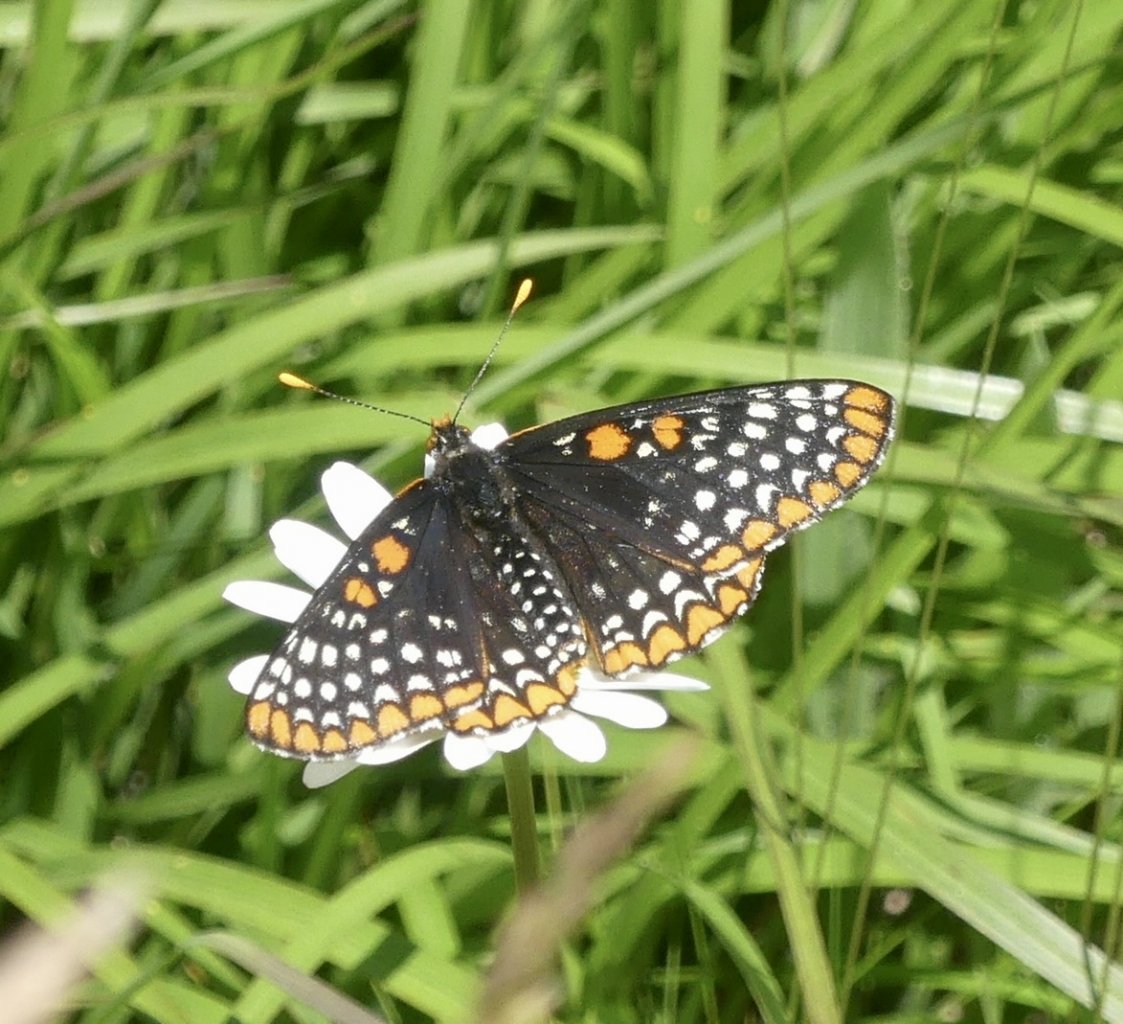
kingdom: Animalia
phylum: Arthropoda
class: Insecta
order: Lepidoptera
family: Nymphalidae
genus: Euphydryas
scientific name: Euphydryas phaeton
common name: Baltimore Checkerspot
